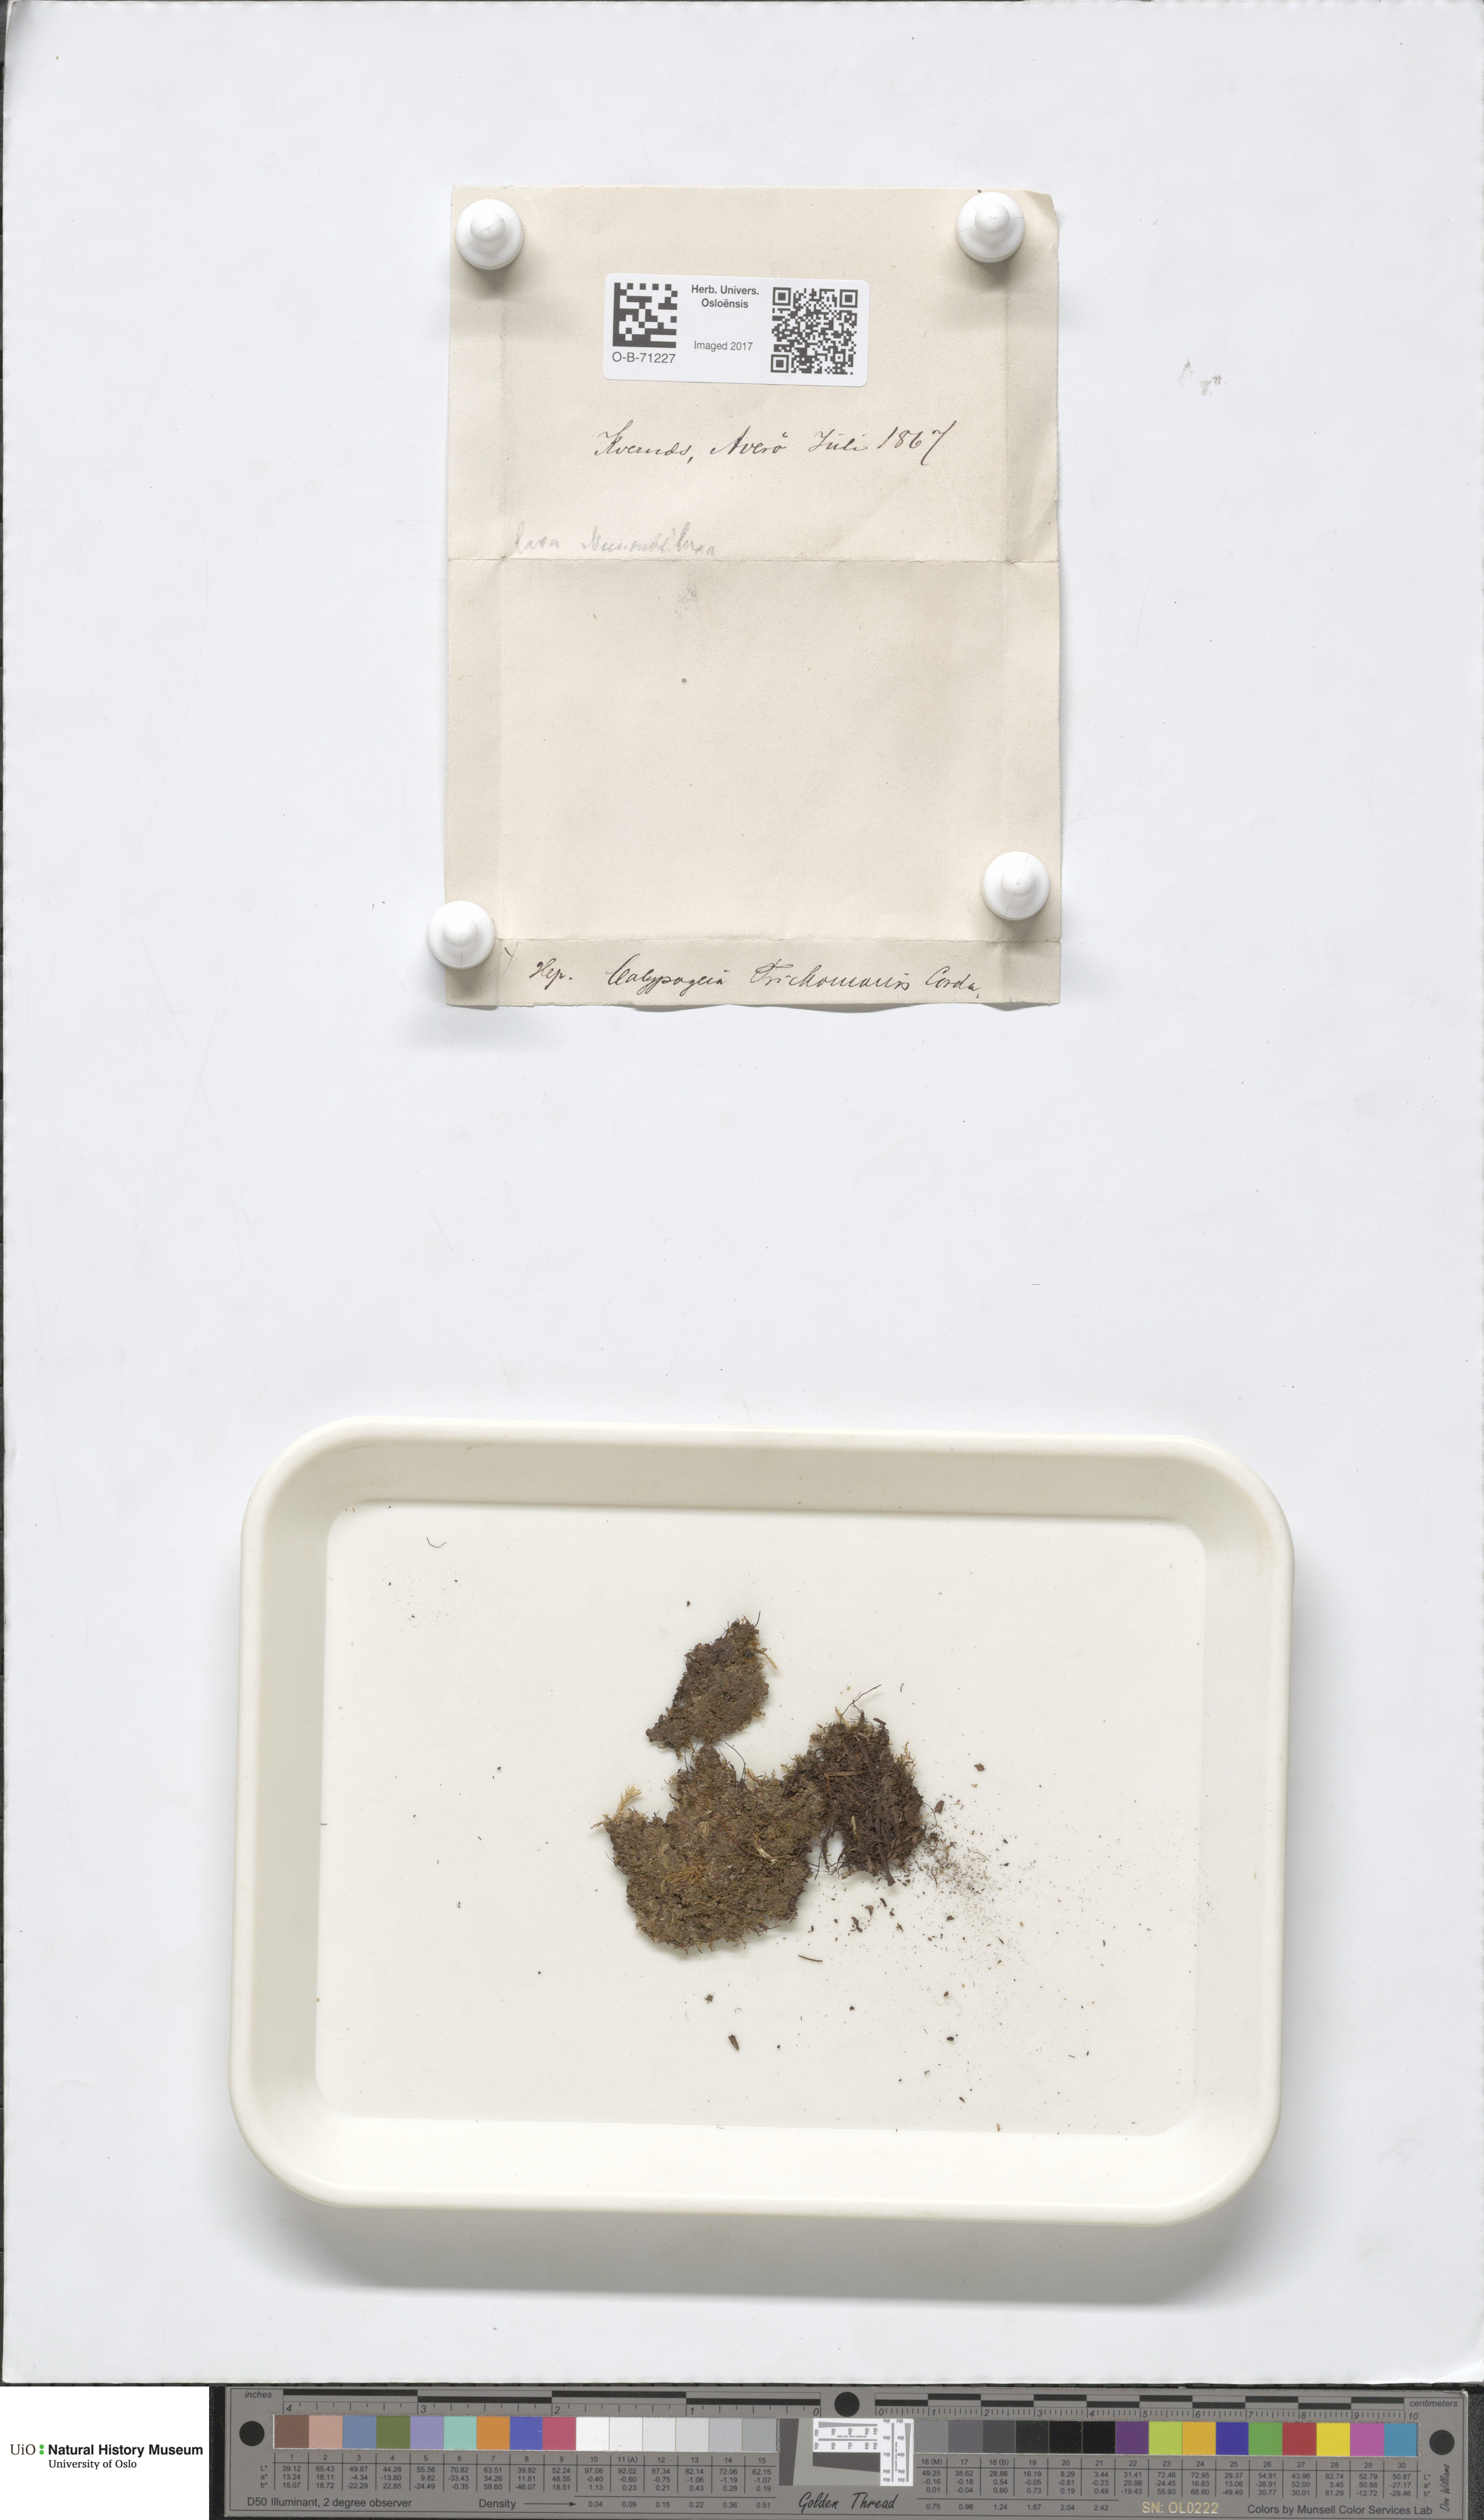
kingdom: Plantae
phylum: Marchantiophyta
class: Jungermanniopsida
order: Jungermanniales
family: Calypogeiaceae
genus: Calypogeia
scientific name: Calypogeia neesiana
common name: Nees  pouchwort
